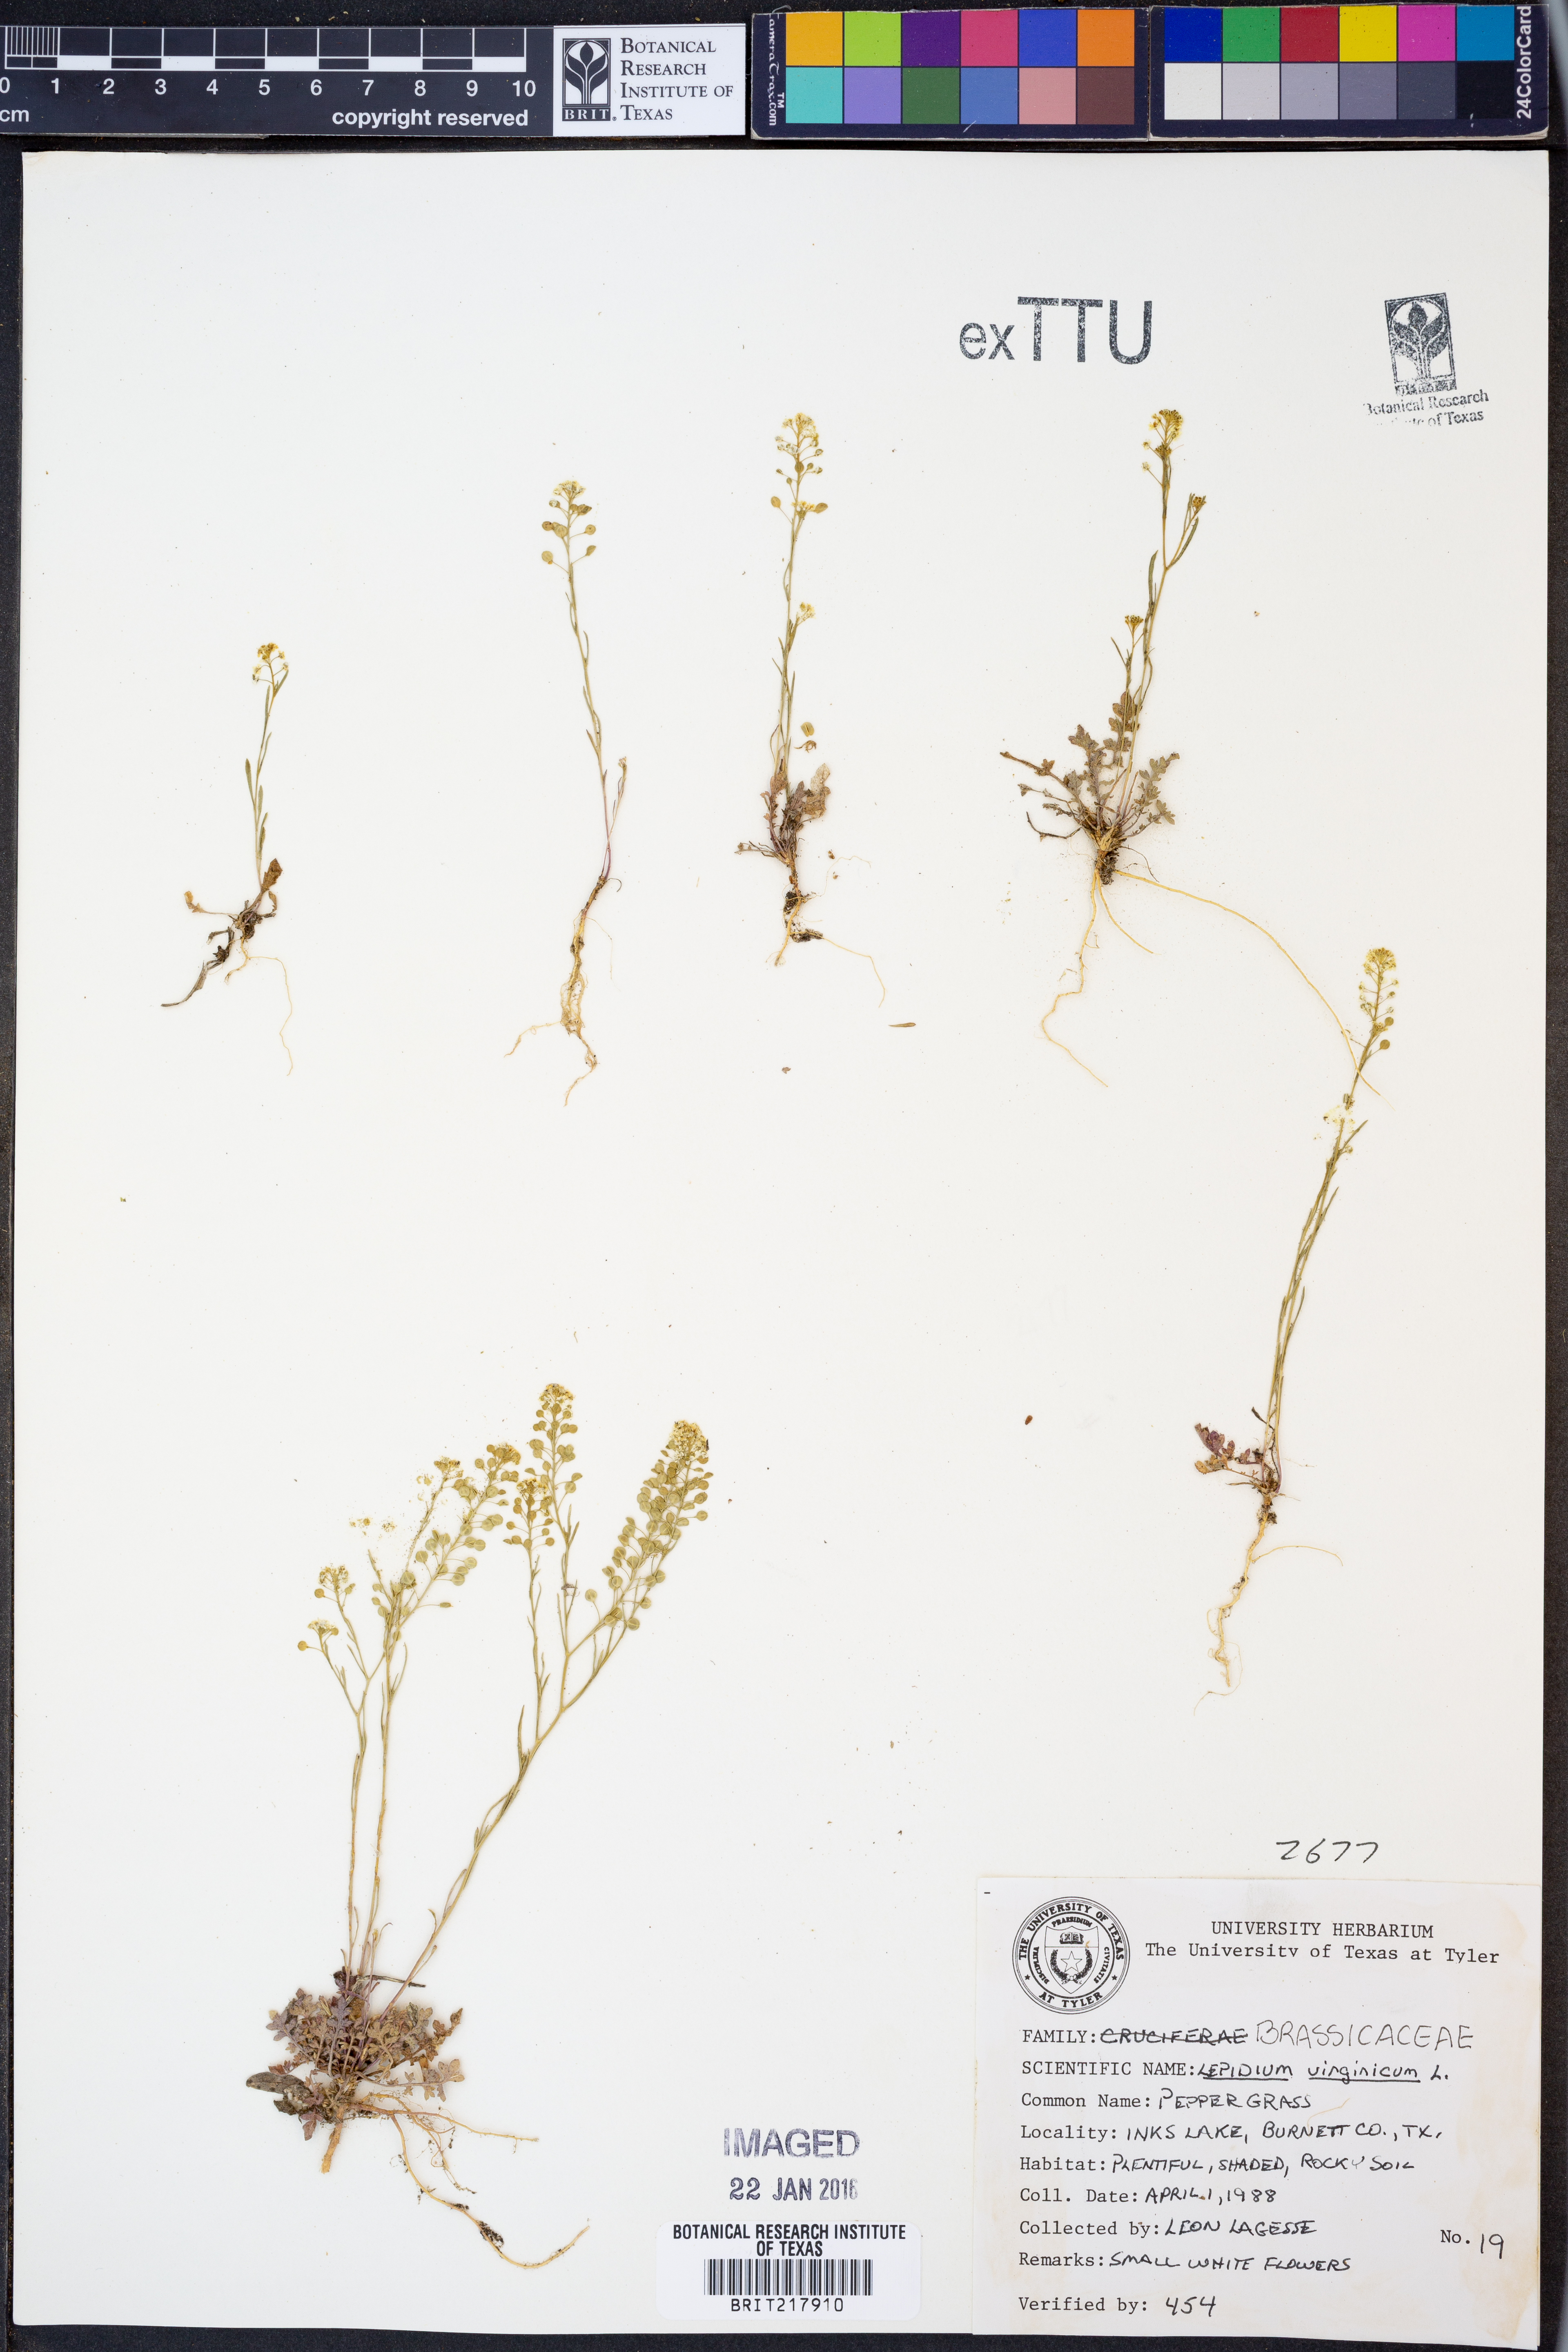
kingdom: Plantae
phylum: Tracheophyta
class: Magnoliopsida
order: Brassicales
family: Brassicaceae
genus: Lepidium
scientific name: Lepidium virginicum
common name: Least pepperwort
